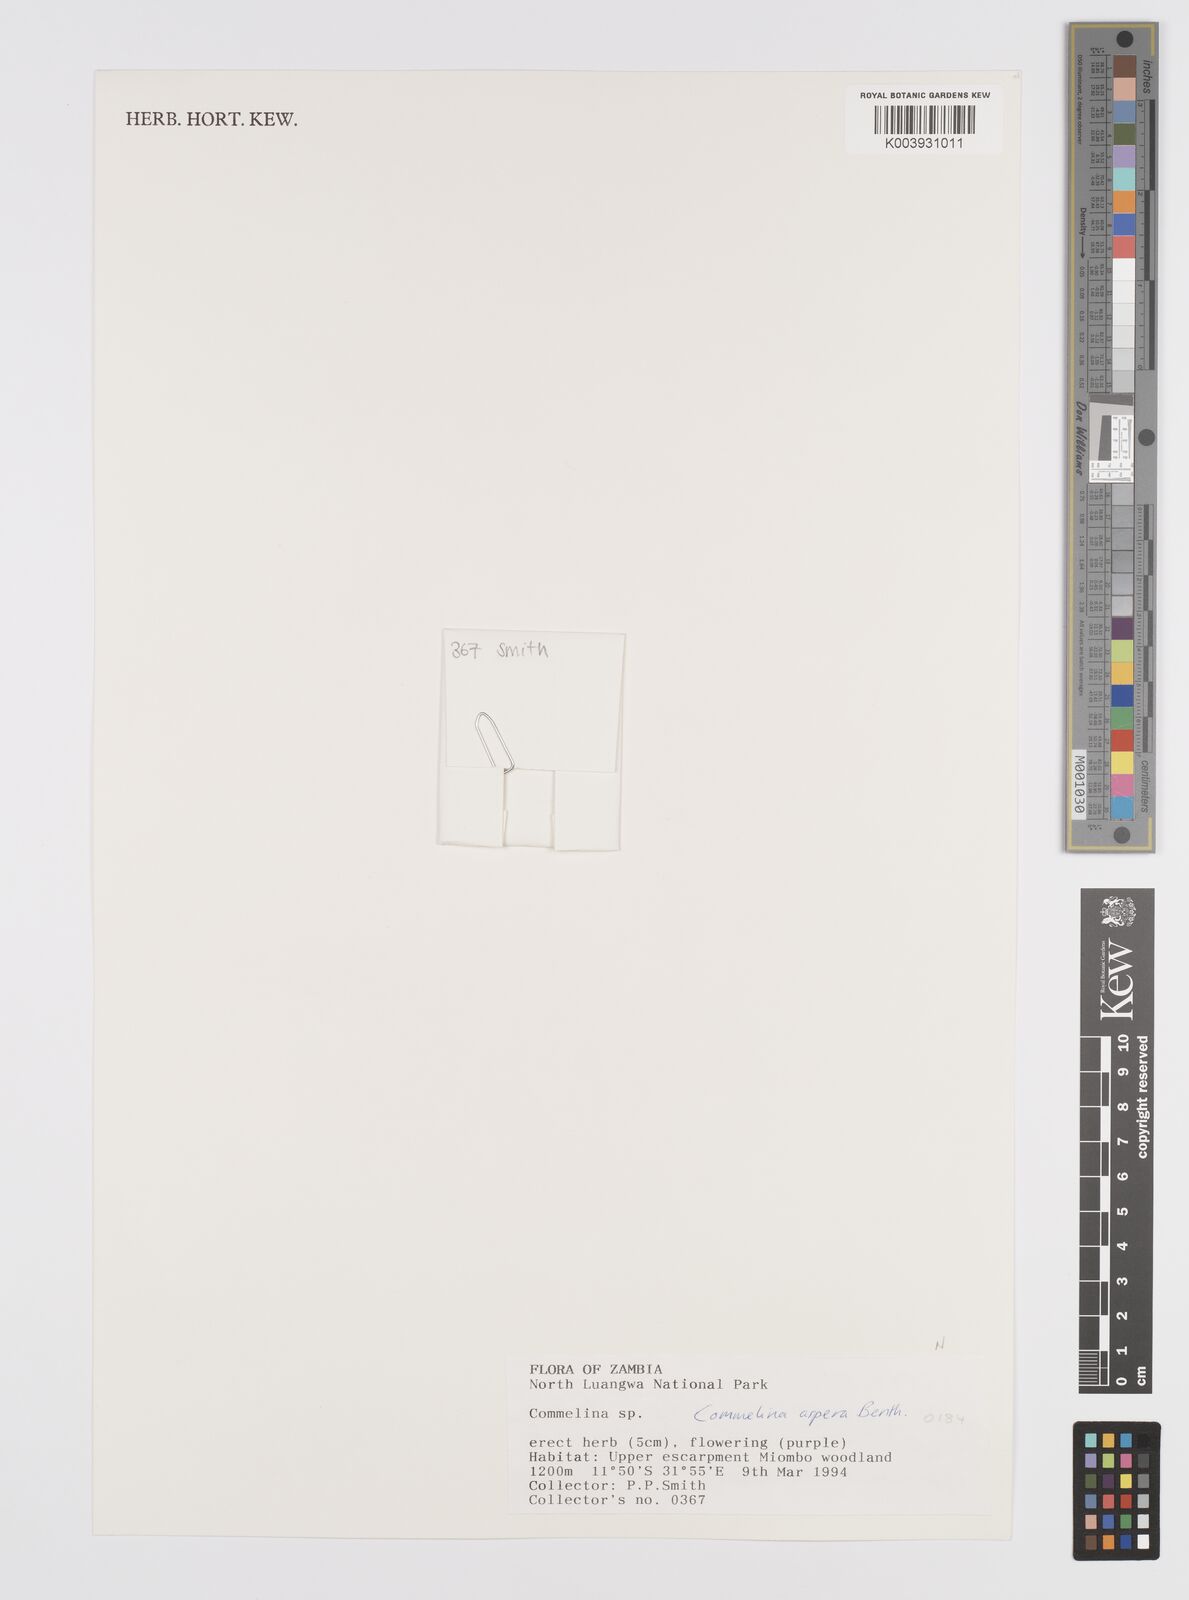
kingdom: Plantae
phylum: Tracheophyta
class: Liliopsida
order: Commelinales
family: Commelinaceae
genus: Commelina
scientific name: Commelina aspera
